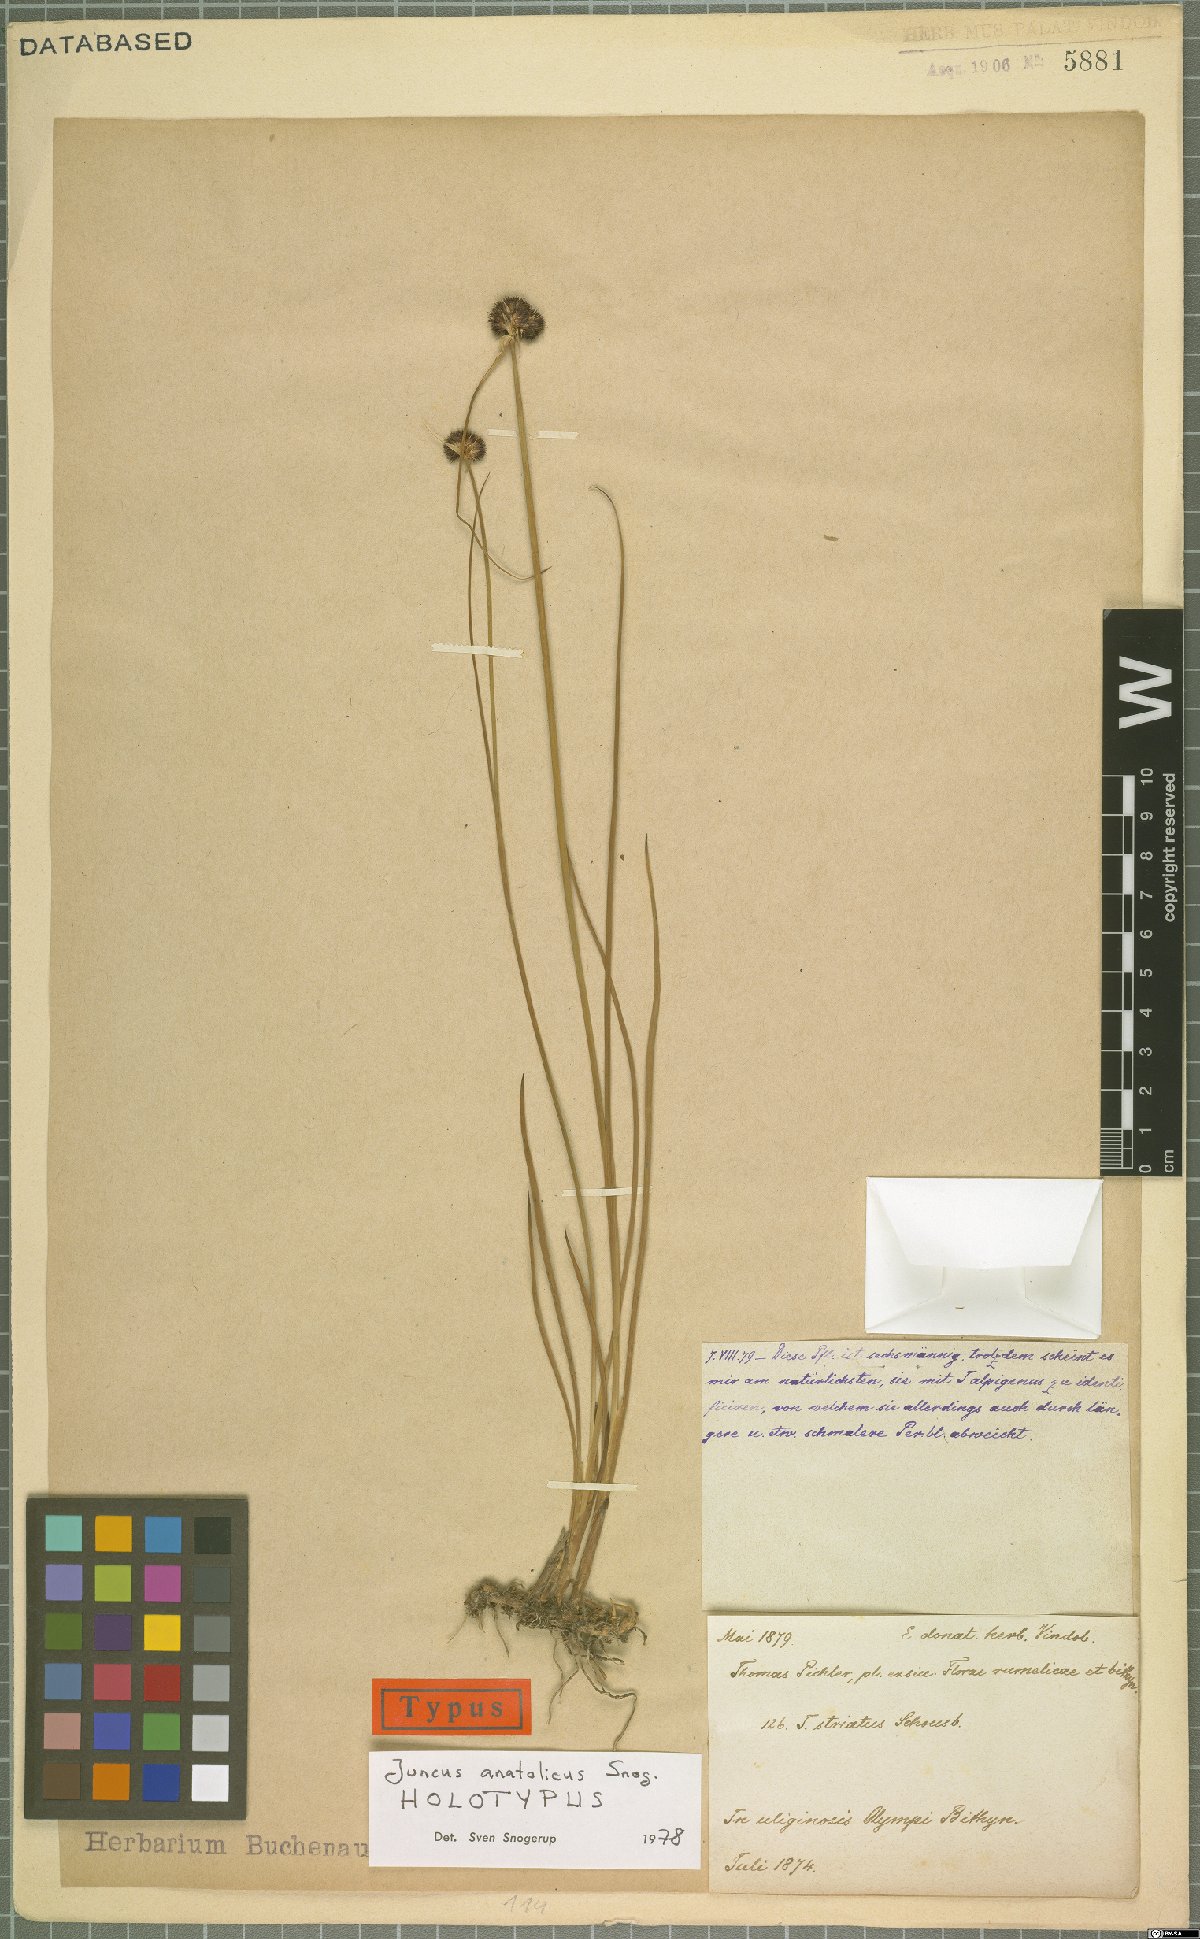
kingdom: Plantae
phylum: Tracheophyta
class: Liliopsida
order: Poales
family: Juncaceae
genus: Juncus
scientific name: Juncus anatolicus
